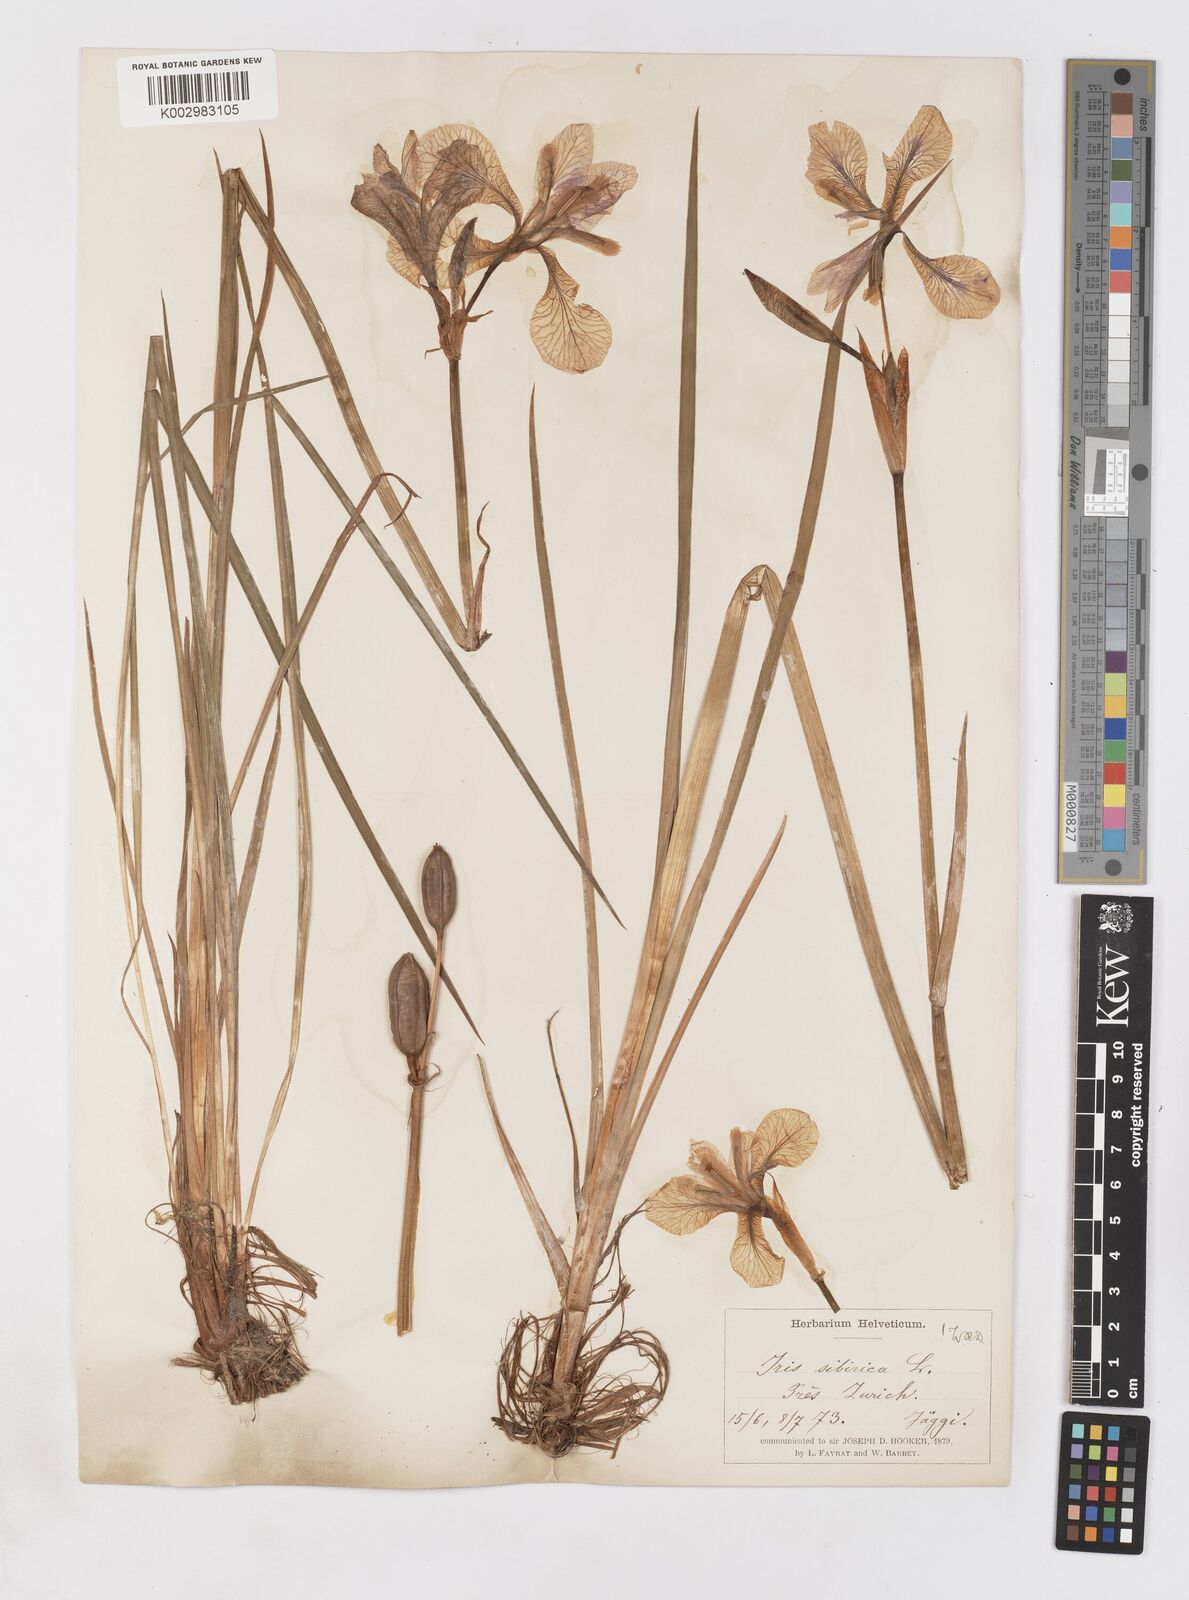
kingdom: Plantae
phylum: Tracheophyta
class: Liliopsida
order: Asparagales
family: Iridaceae
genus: Iris
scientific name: Iris sibirica
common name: Siberian iris
